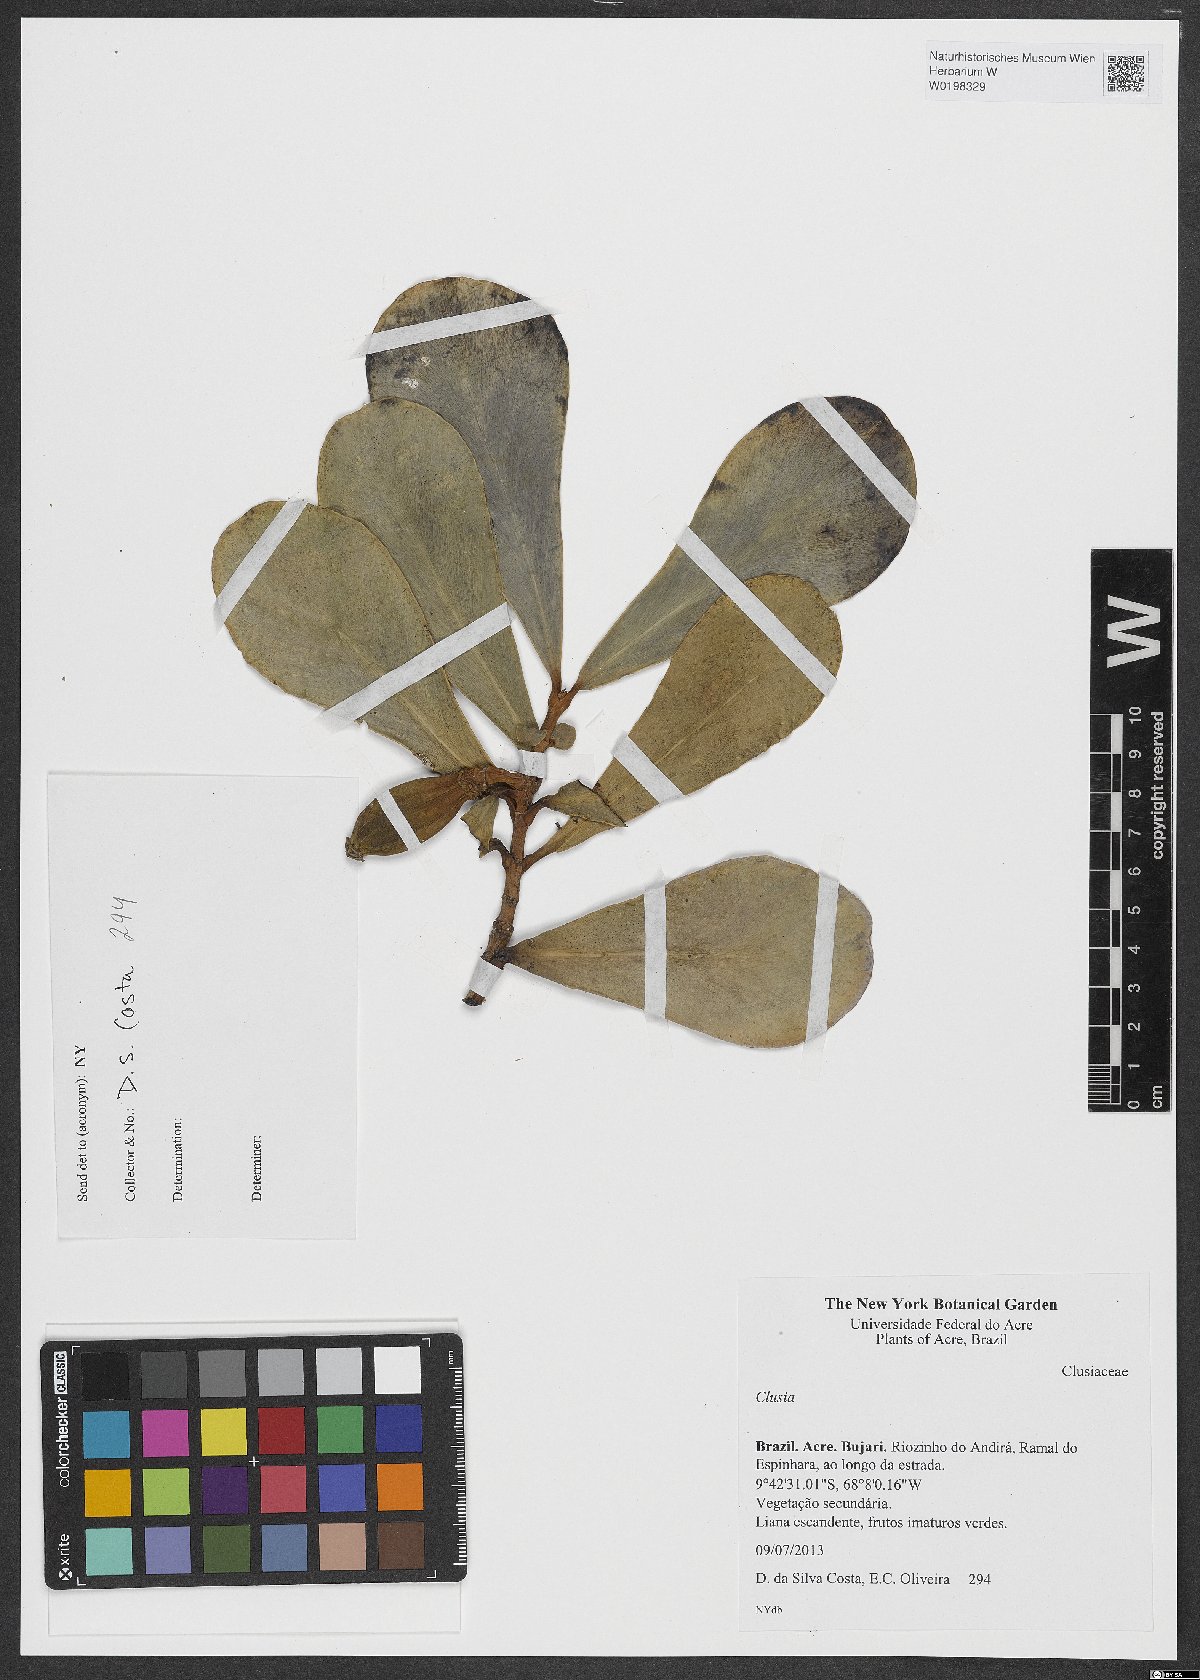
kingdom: Plantae
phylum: Tracheophyta
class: Magnoliopsida
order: Malpighiales
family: Clusiaceae
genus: Clusia
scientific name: Clusia
